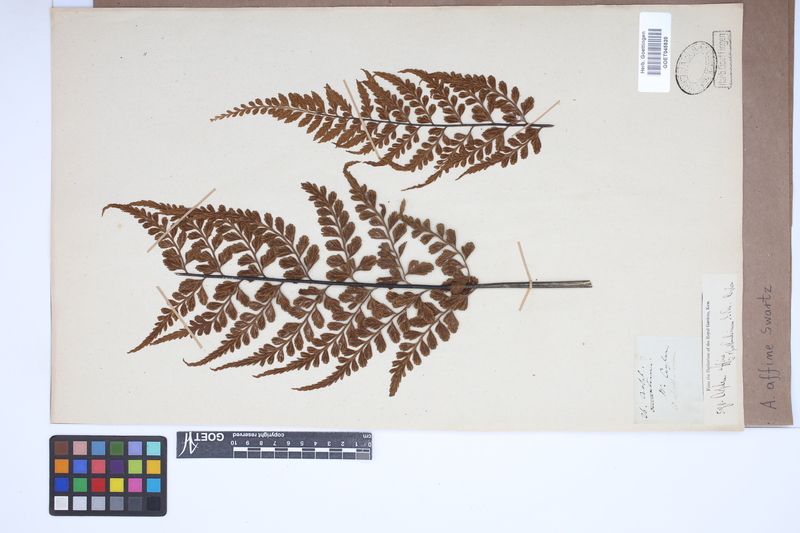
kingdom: Plantae
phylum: Tracheophyta
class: Polypodiopsida
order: Polypodiales
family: Aspleniaceae
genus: Asplenium
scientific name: Asplenium affine
